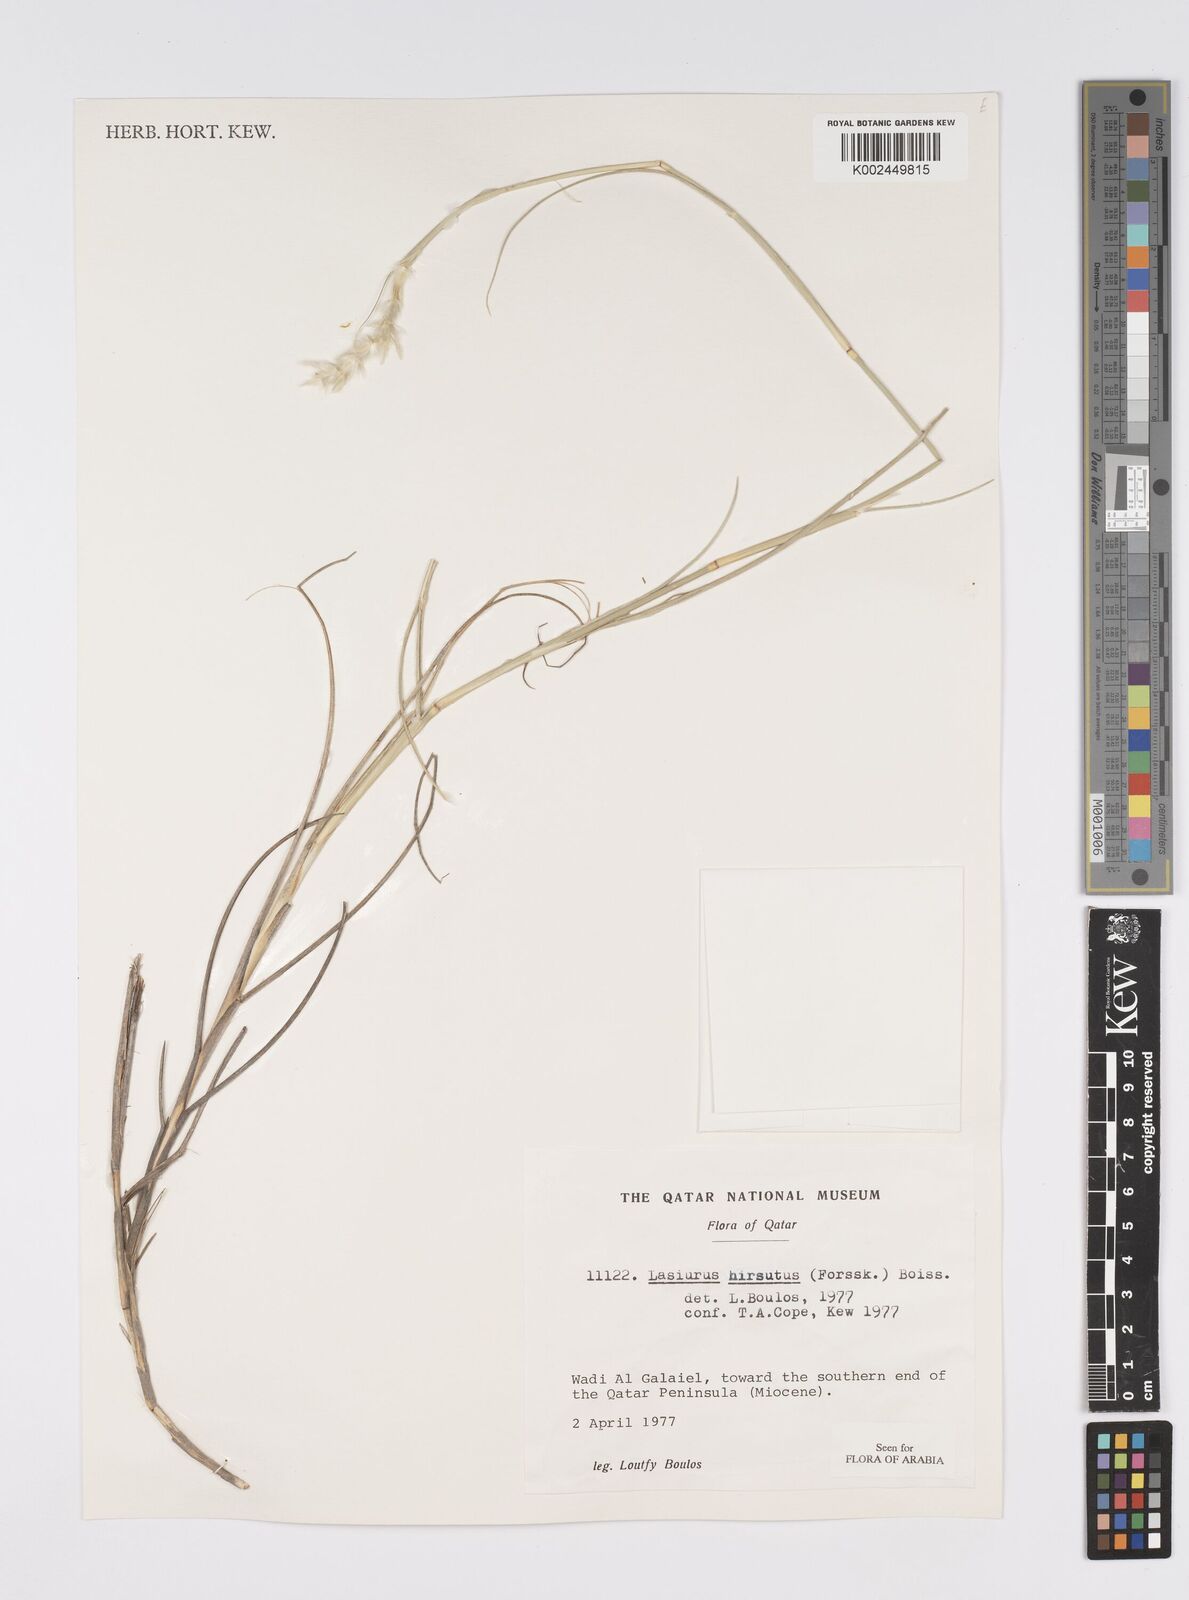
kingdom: Plantae
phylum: Tracheophyta
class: Liliopsida
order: Poales
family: Poaceae
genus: Lasiurus
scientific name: Lasiurus scindicus
